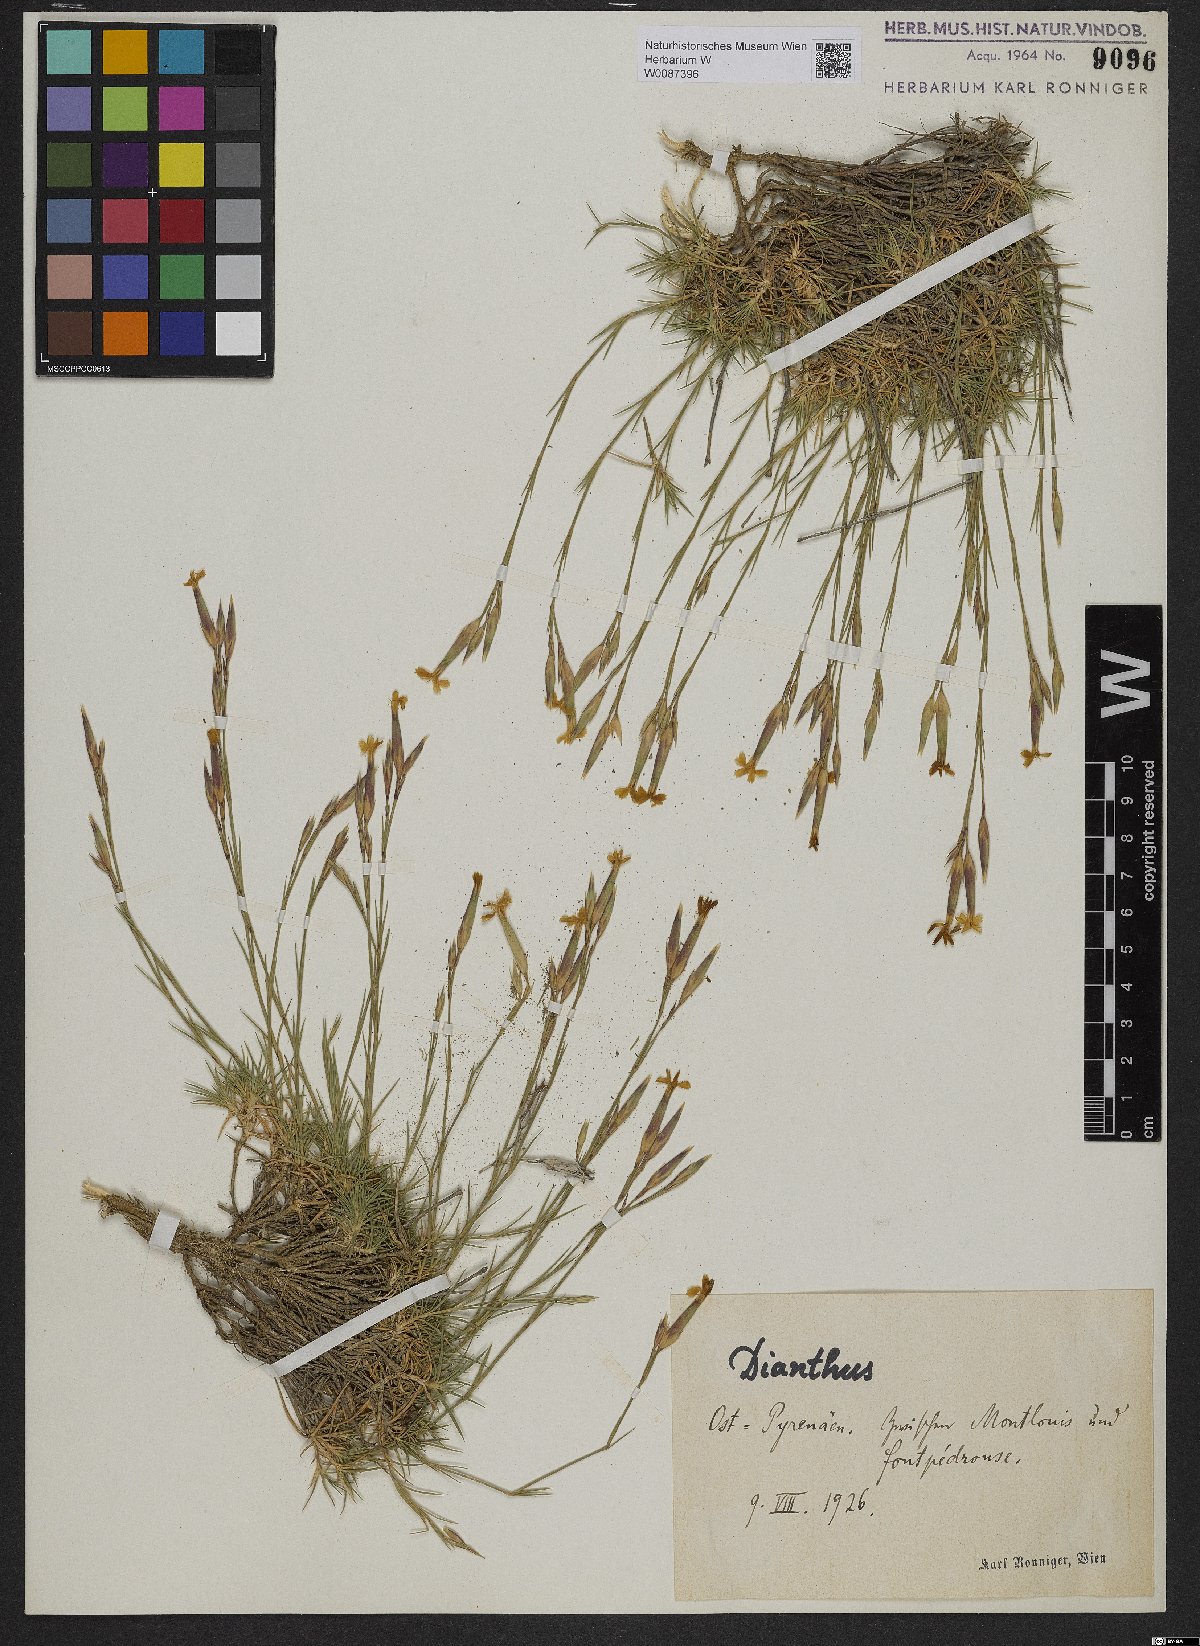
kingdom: Plantae
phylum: Tracheophyta
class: Magnoliopsida
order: Caryophyllales
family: Caryophyllaceae
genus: Dianthus
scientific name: Dianthus
